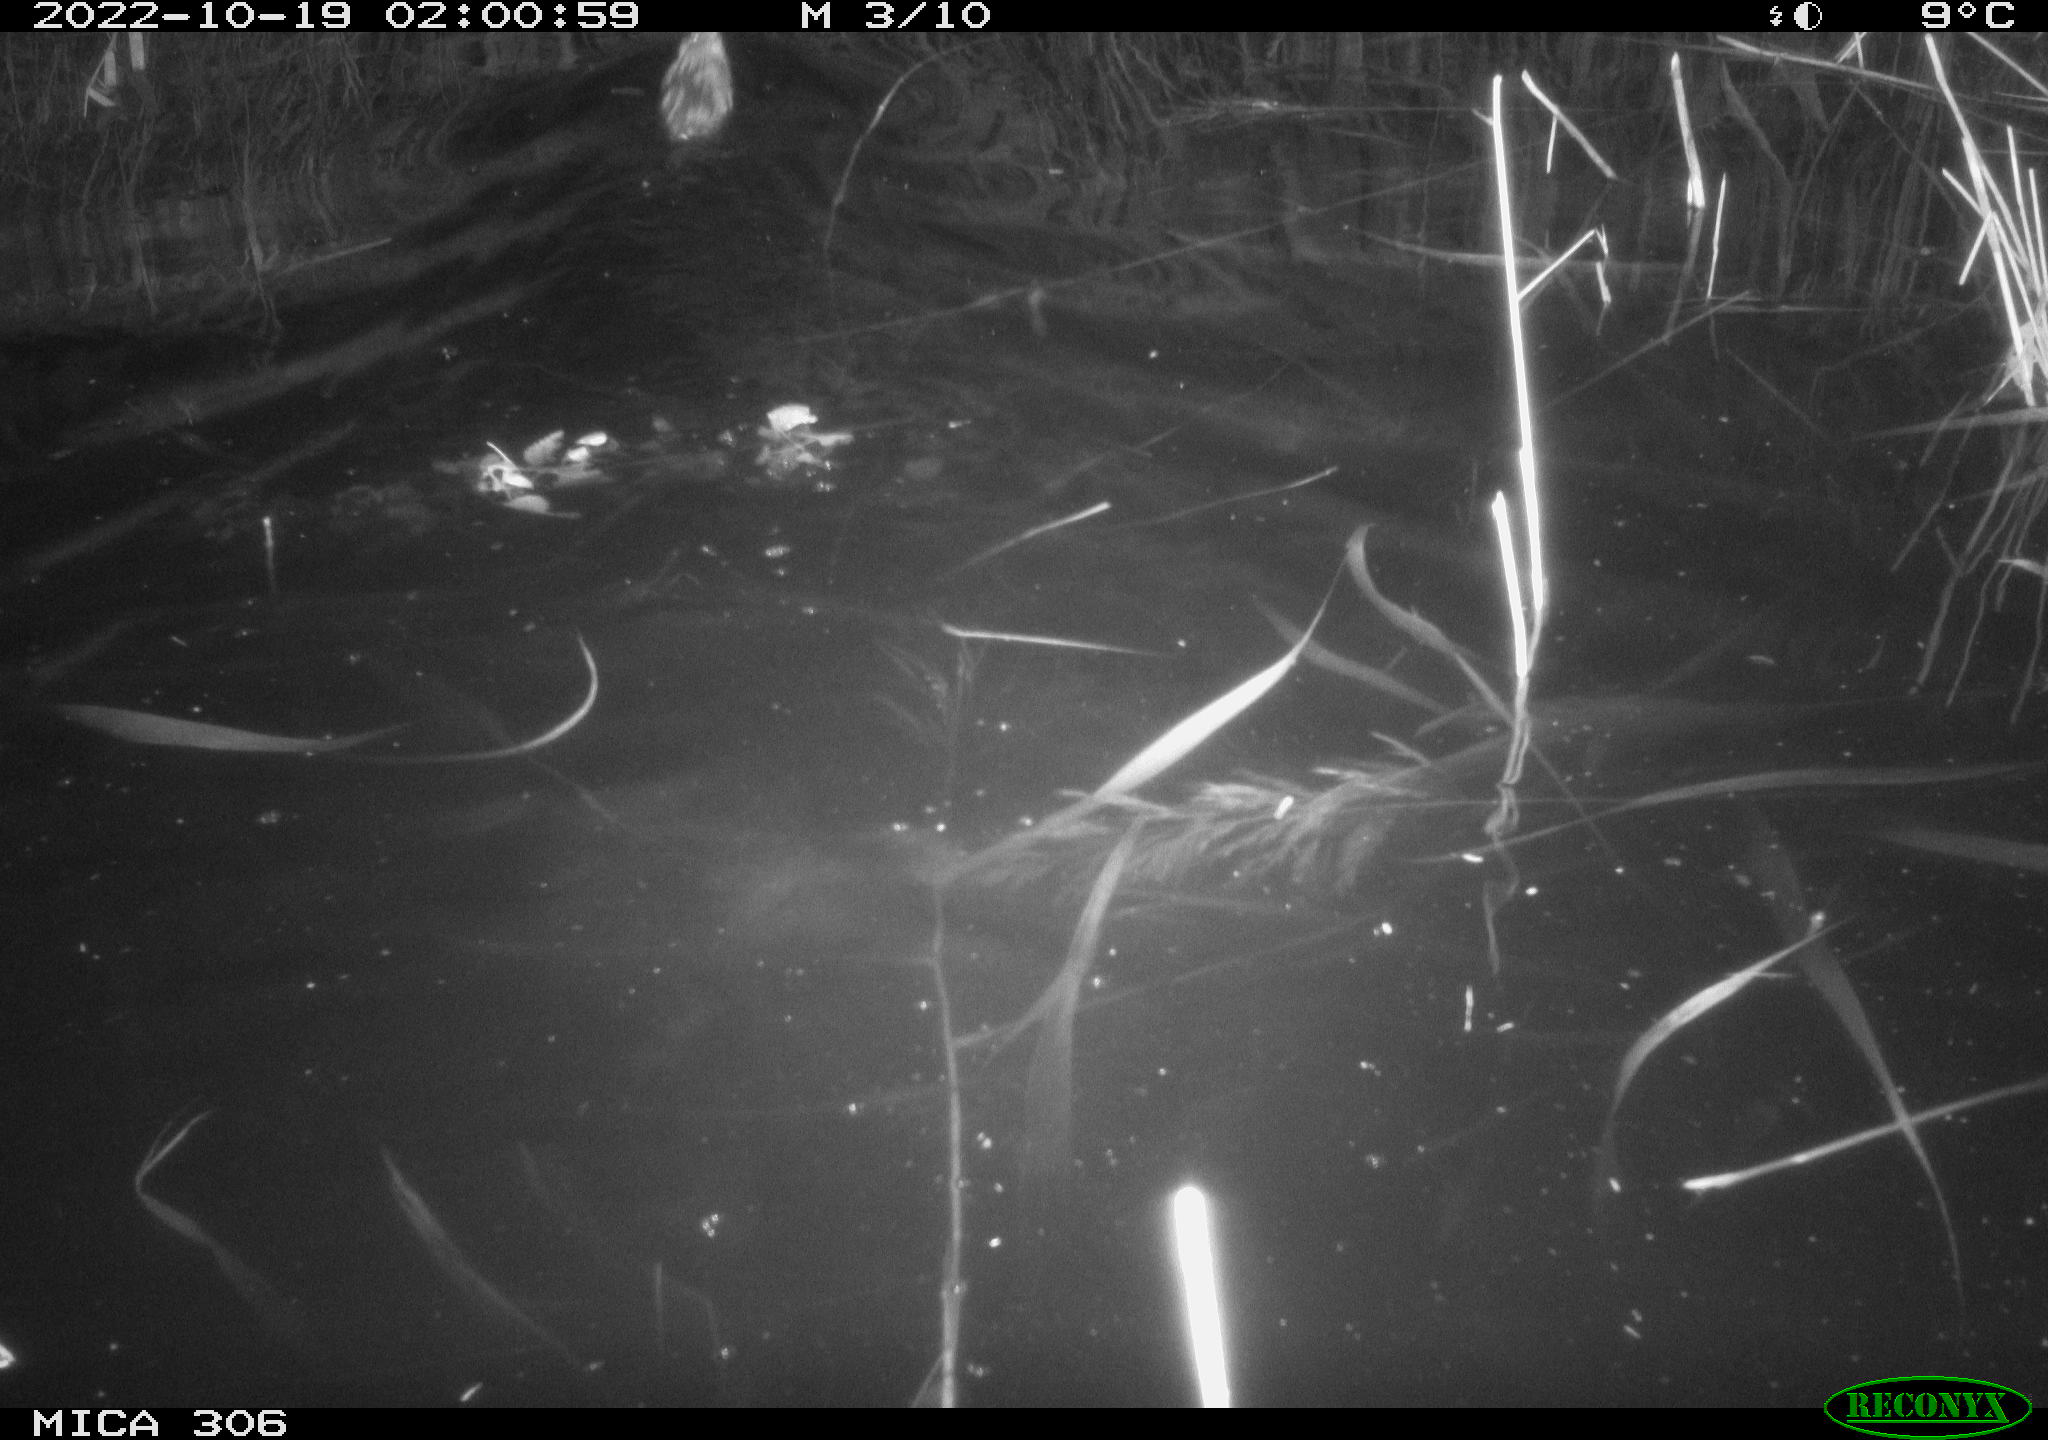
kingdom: Animalia
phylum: Chordata
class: Mammalia
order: Rodentia
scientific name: Rodentia
